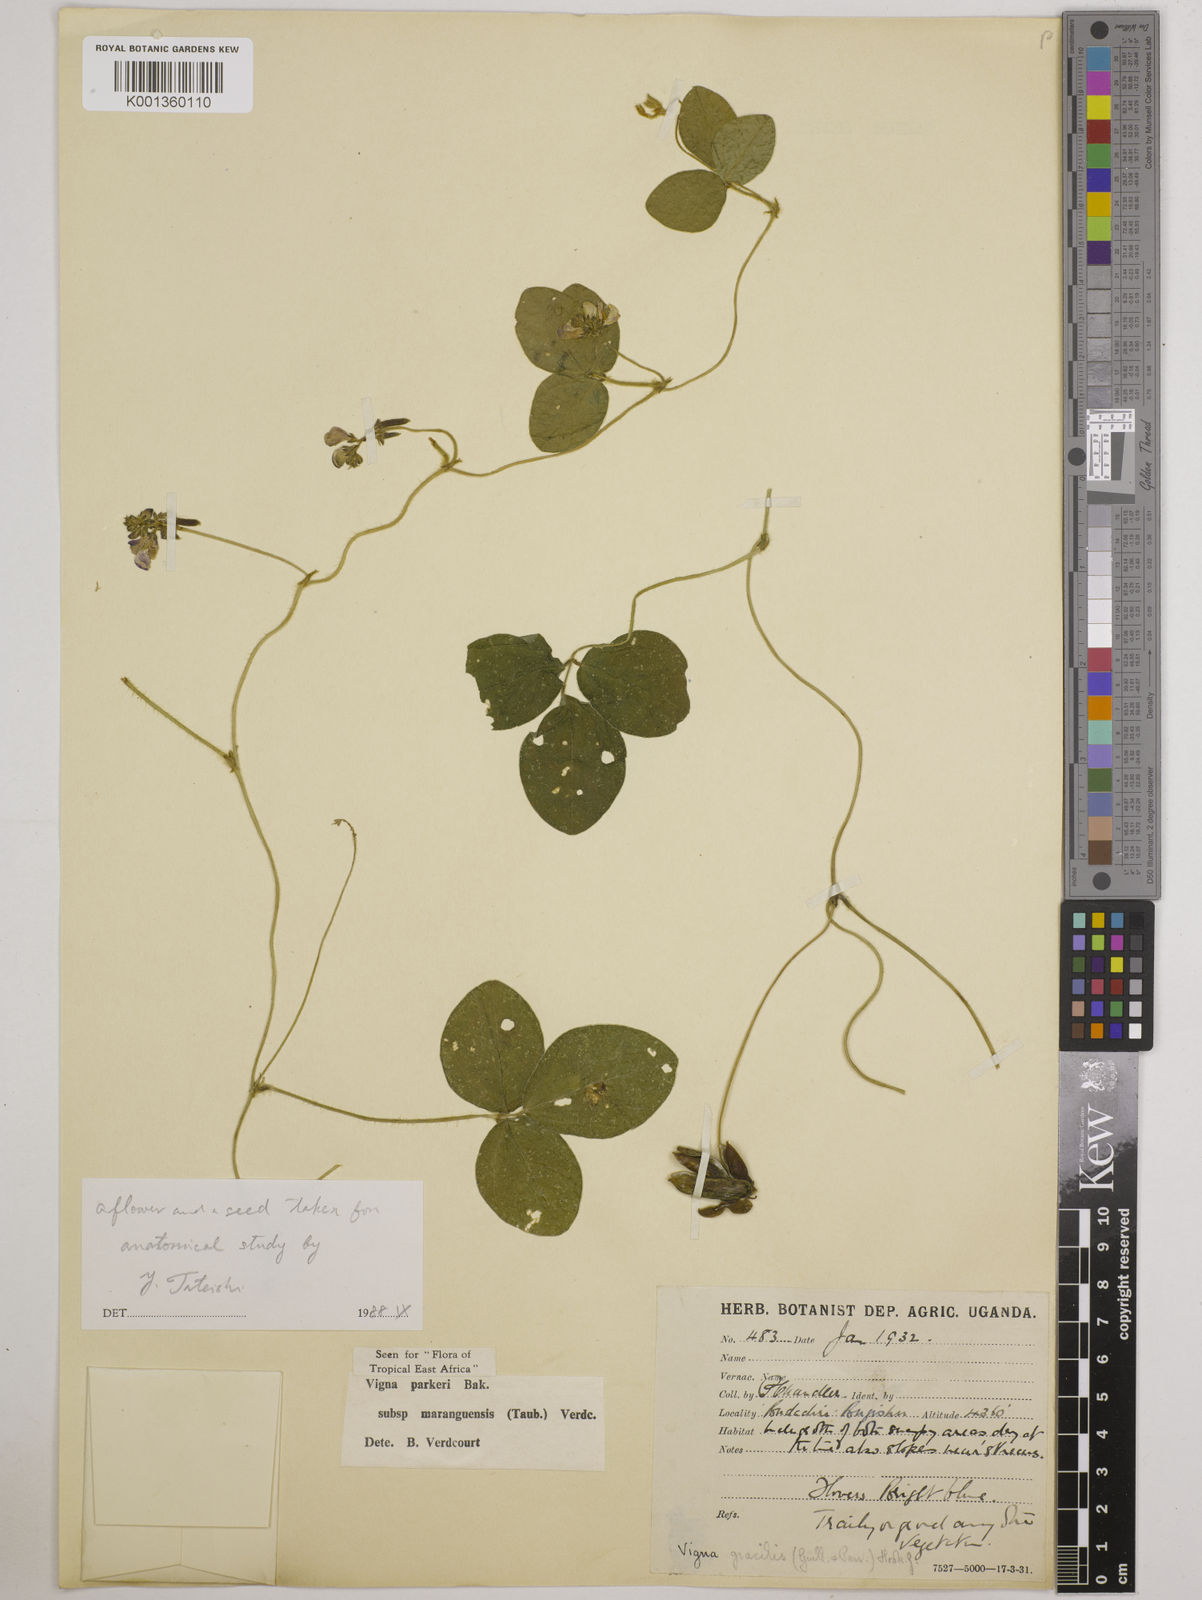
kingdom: Plantae
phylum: Tracheophyta
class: Magnoliopsida
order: Fabales
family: Fabaceae
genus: Vigna
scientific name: Vigna
